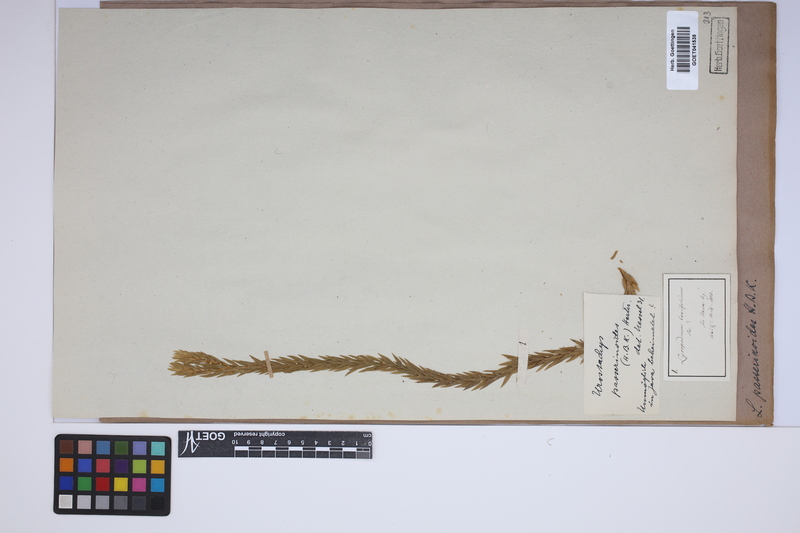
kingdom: Plantae
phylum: Tracheophyta
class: Lycopodiopsida
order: Lycopodiales
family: Lycopodiaceae
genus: Phlegmariurus
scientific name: Phlegmariurus taxifolius
